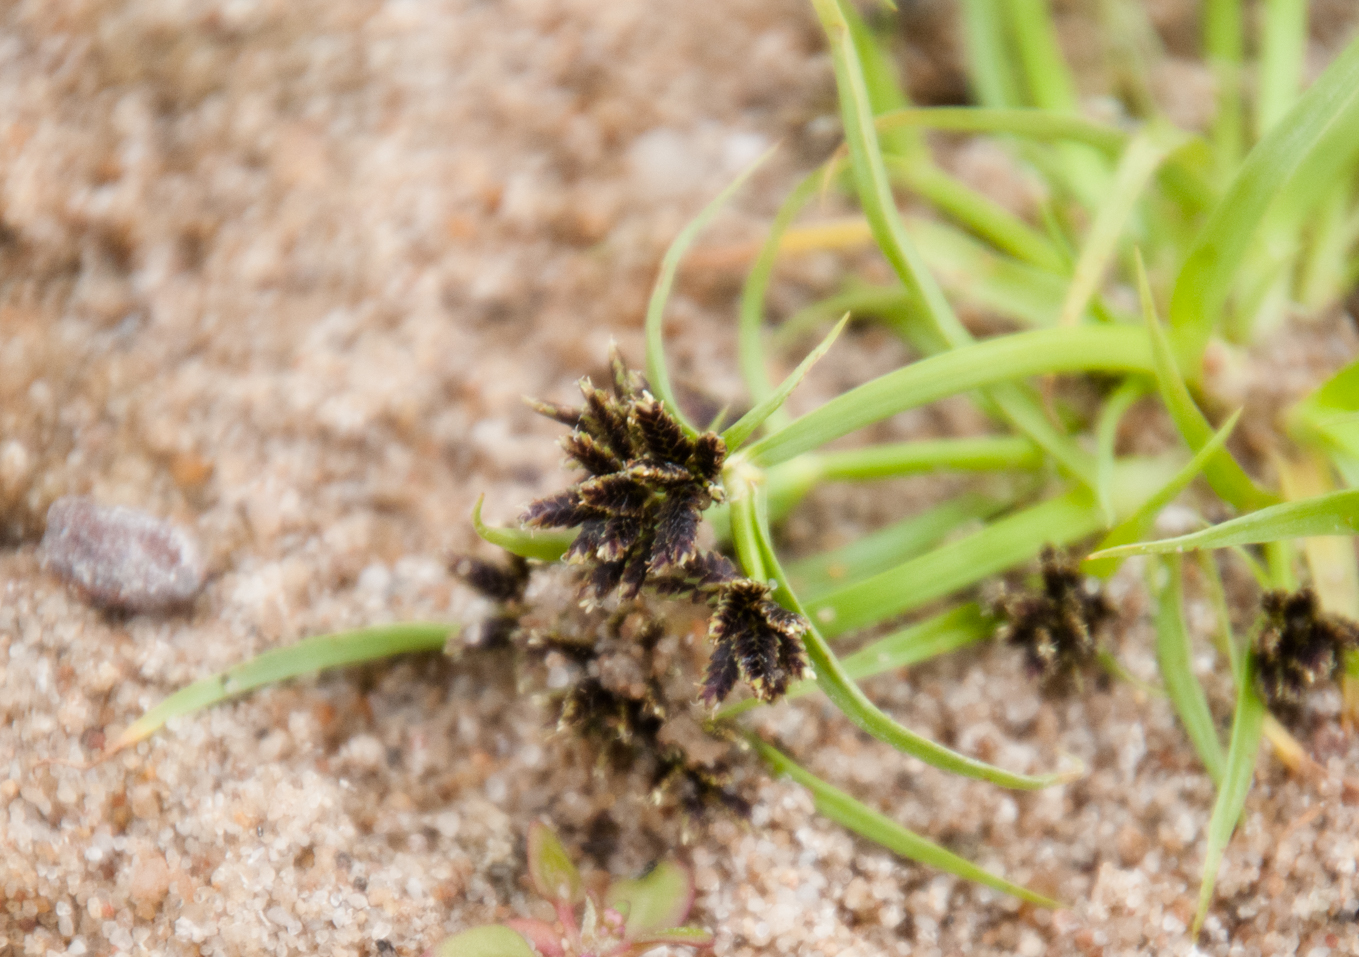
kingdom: Plantae
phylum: Tracheophyta
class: Liliopsida
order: Poales
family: Cyperaceae
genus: Cyperus
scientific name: Cyperus fuscus
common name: Brown galingale
